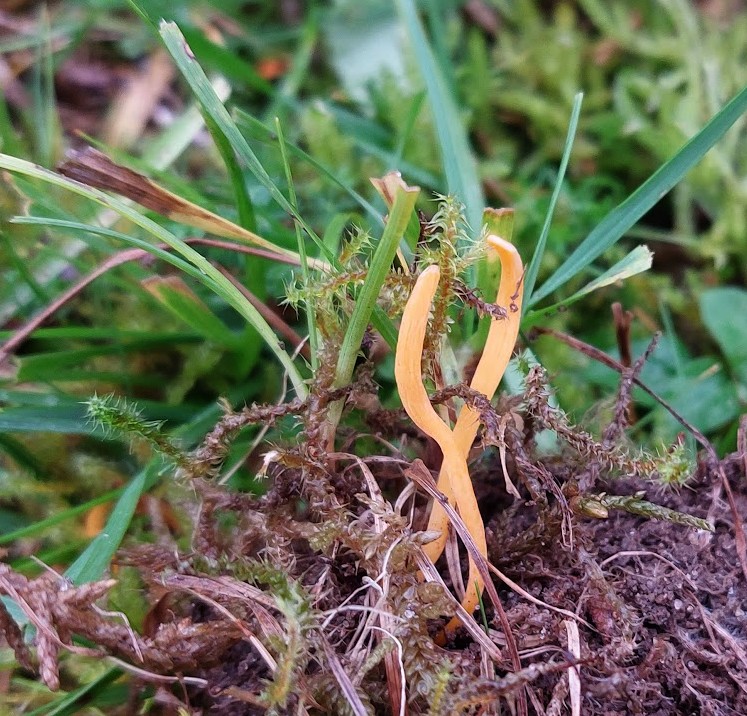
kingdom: Fungi
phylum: Basidiomycota
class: Agaricomycetes
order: Agaricales
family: Clavariaceae
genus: Clavulinopsis
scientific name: Clavulinopsis luteoalba
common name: abrikos-køllesvamp
